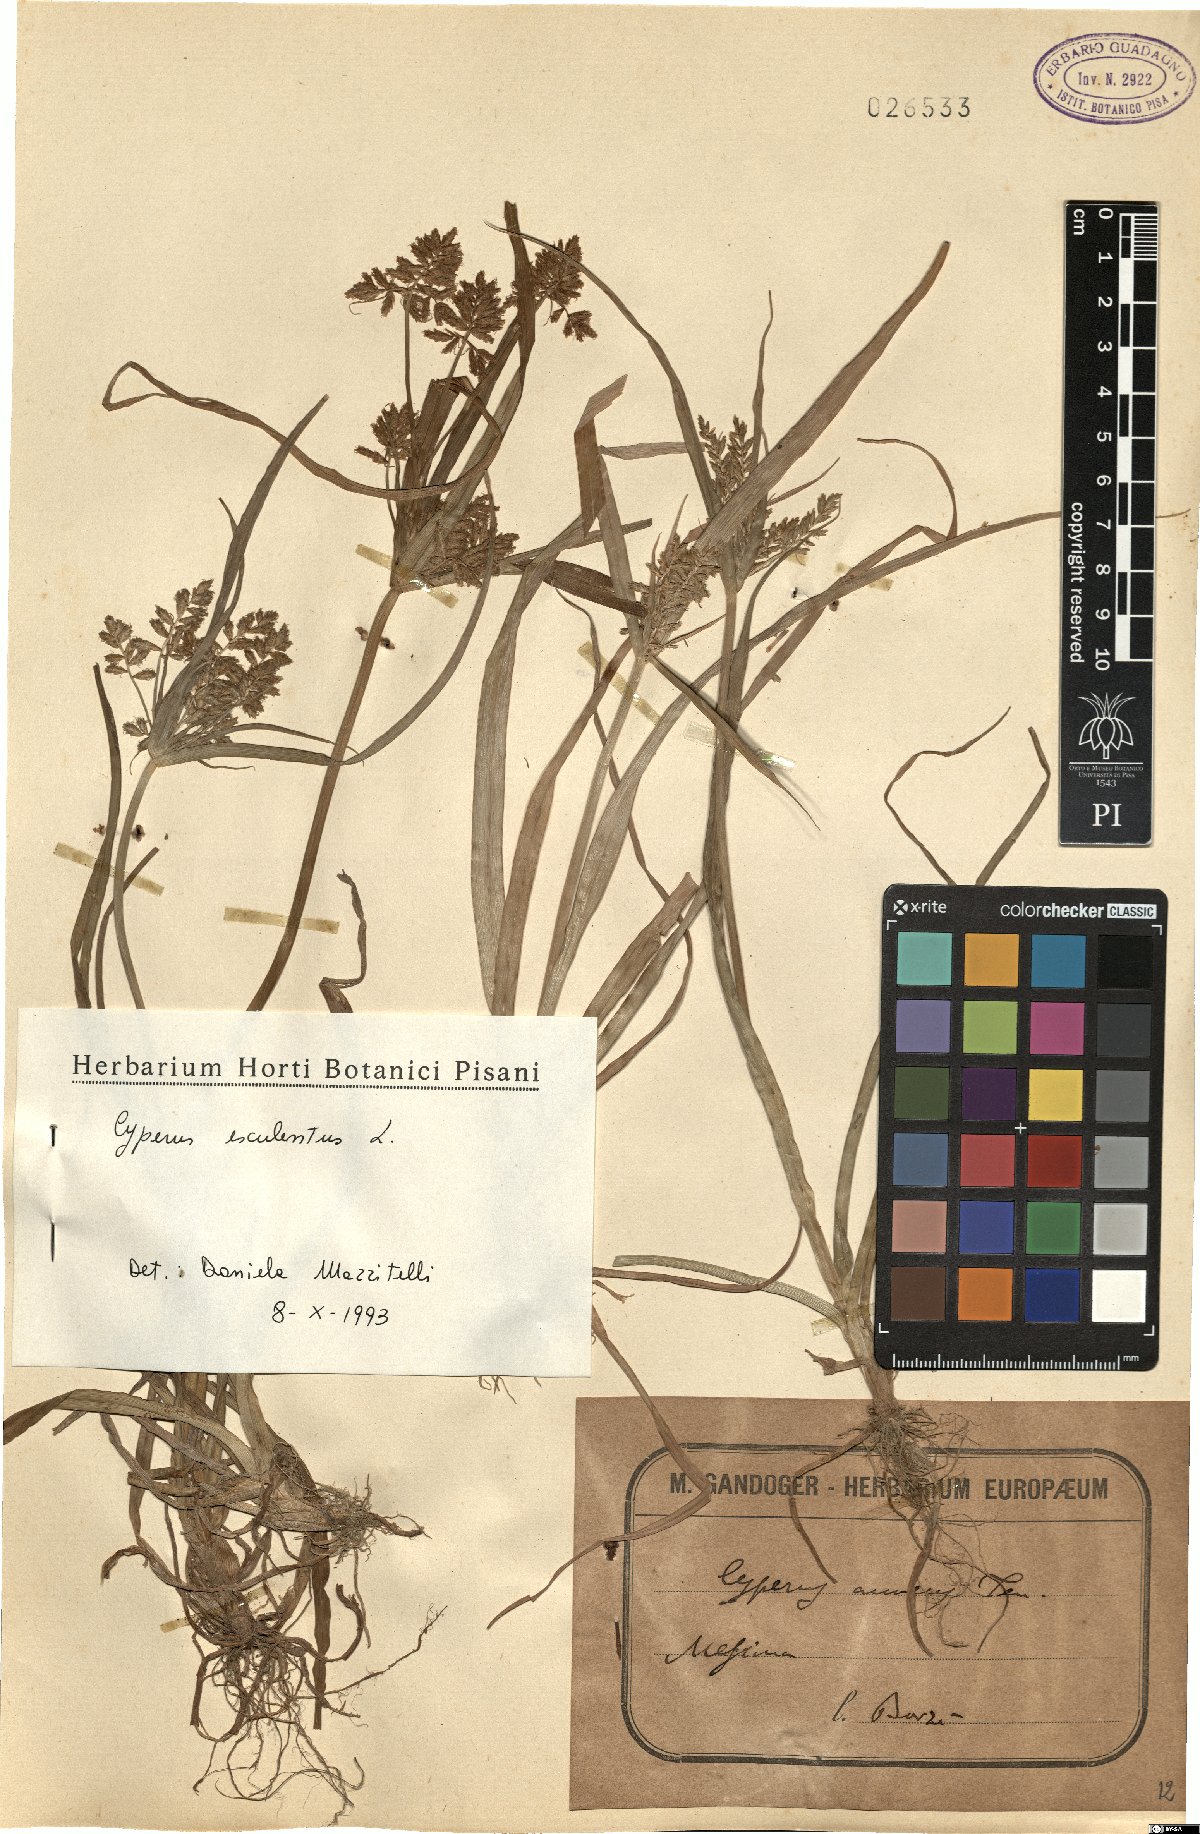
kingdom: Plantae
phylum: Tracheophyta
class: Liliopsida
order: Poales
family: Cyperaceae
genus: Cyperus
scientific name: Cyperus esculentus
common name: Yellow nutsedge
